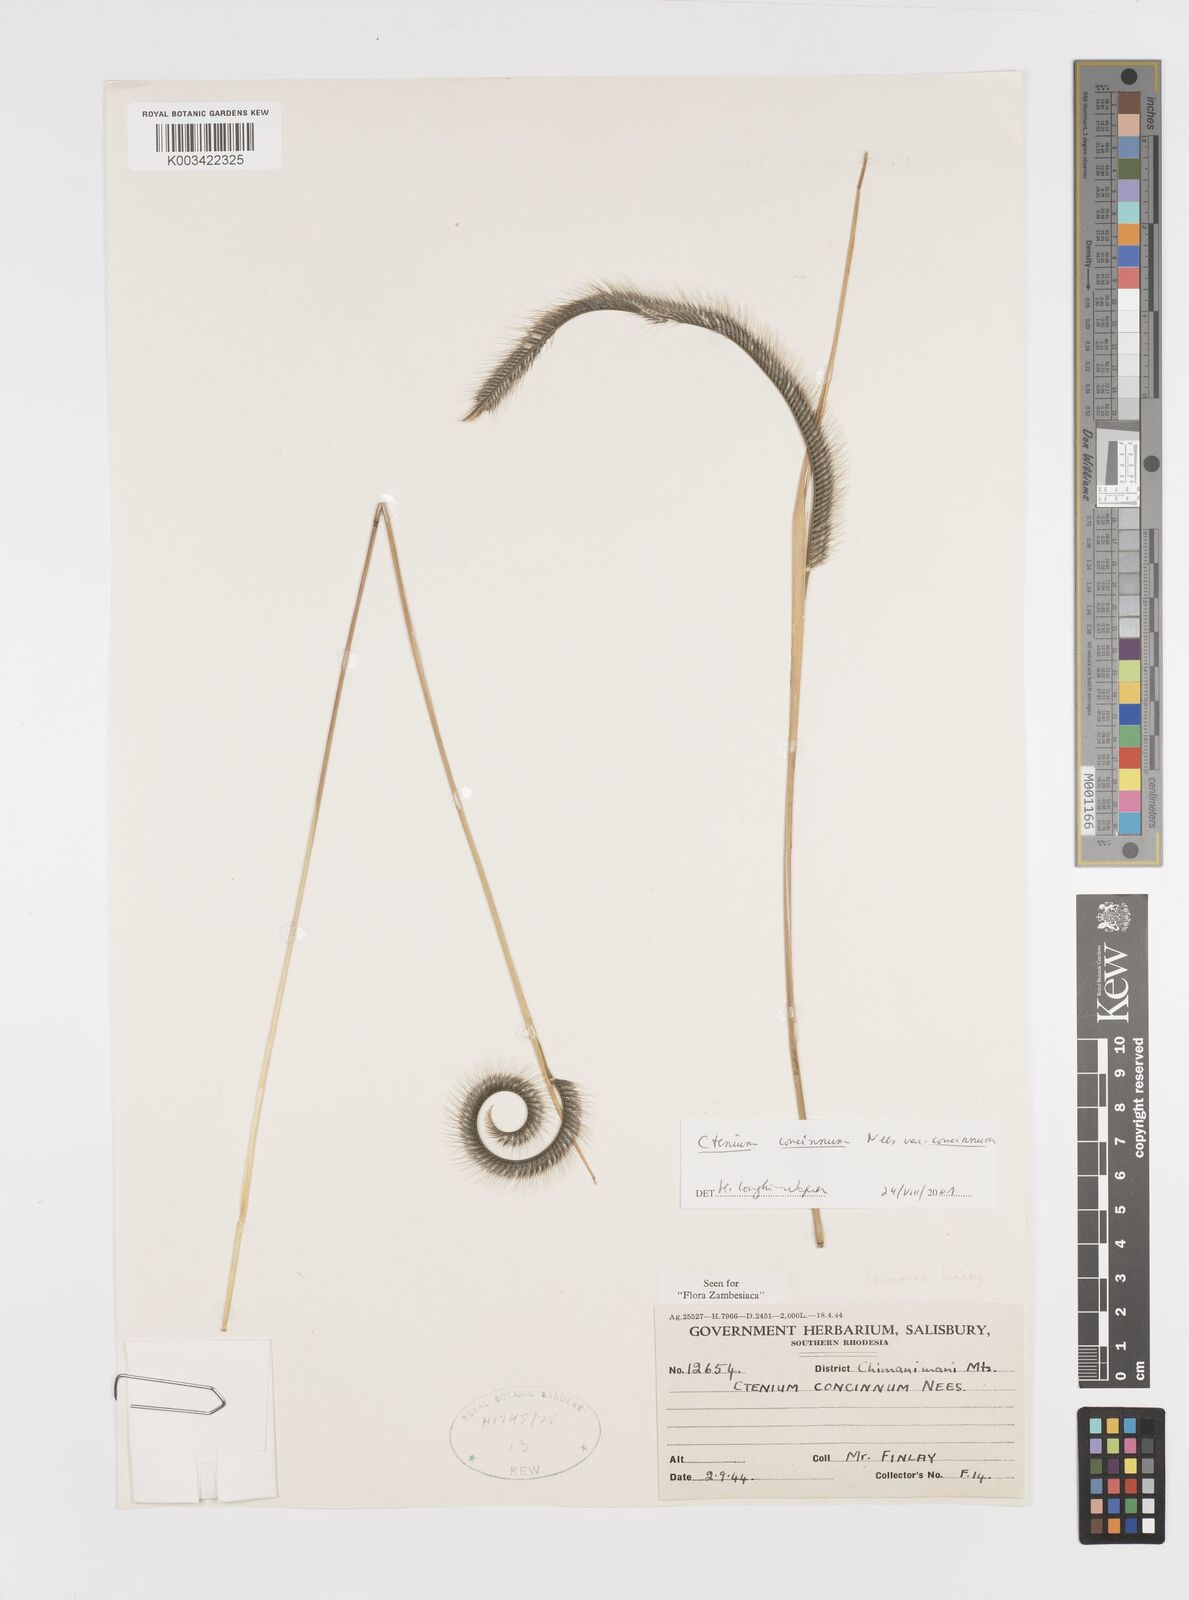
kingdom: Plantae
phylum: Tracheophyta
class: Liliopsida
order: Poales
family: Poaceae
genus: Ctenium
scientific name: Ctenium concinnum
